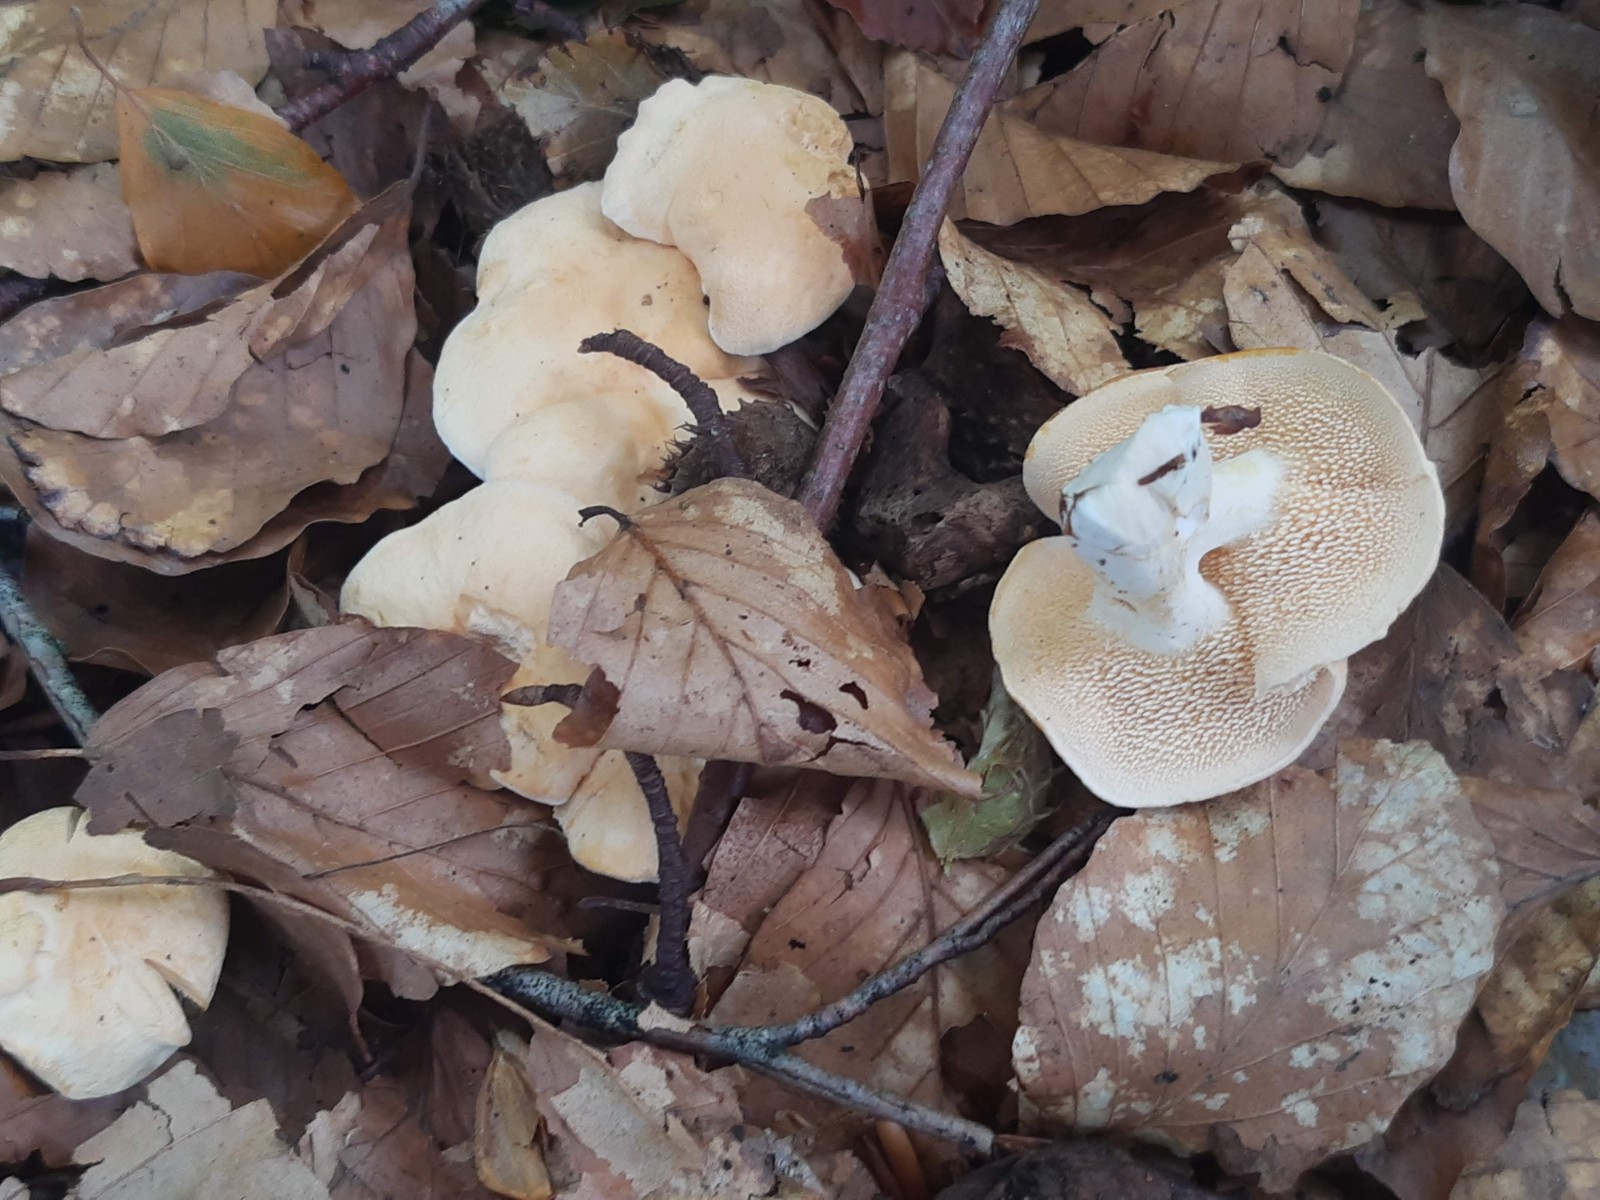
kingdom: Fungi
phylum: Basidiomycota
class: Agaricomycetes
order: Cantharellales
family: Hydnaceae
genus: Hydnum
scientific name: Hydnum
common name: pigsvamp
